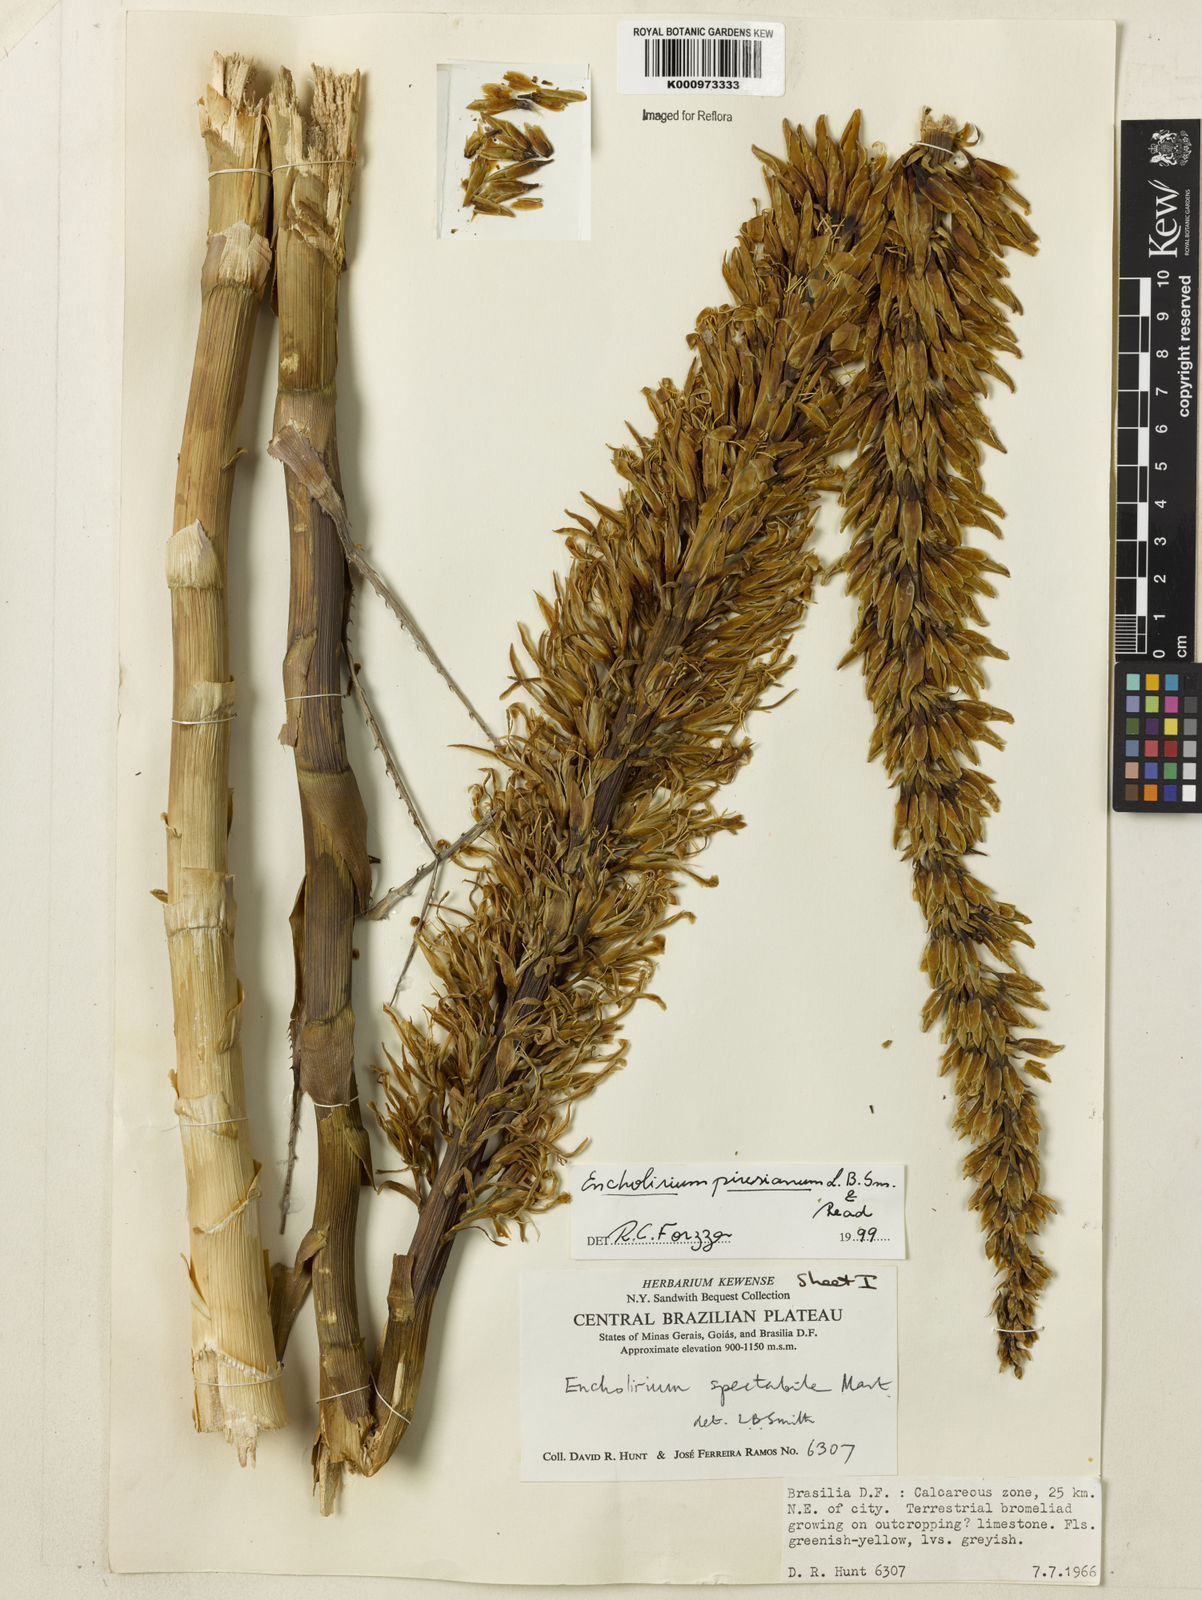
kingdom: Plantae
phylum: Tracheophyta
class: Liliopsida
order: Poales
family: Bromeliaceae
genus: Encholirium
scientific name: Encholirium luxor
